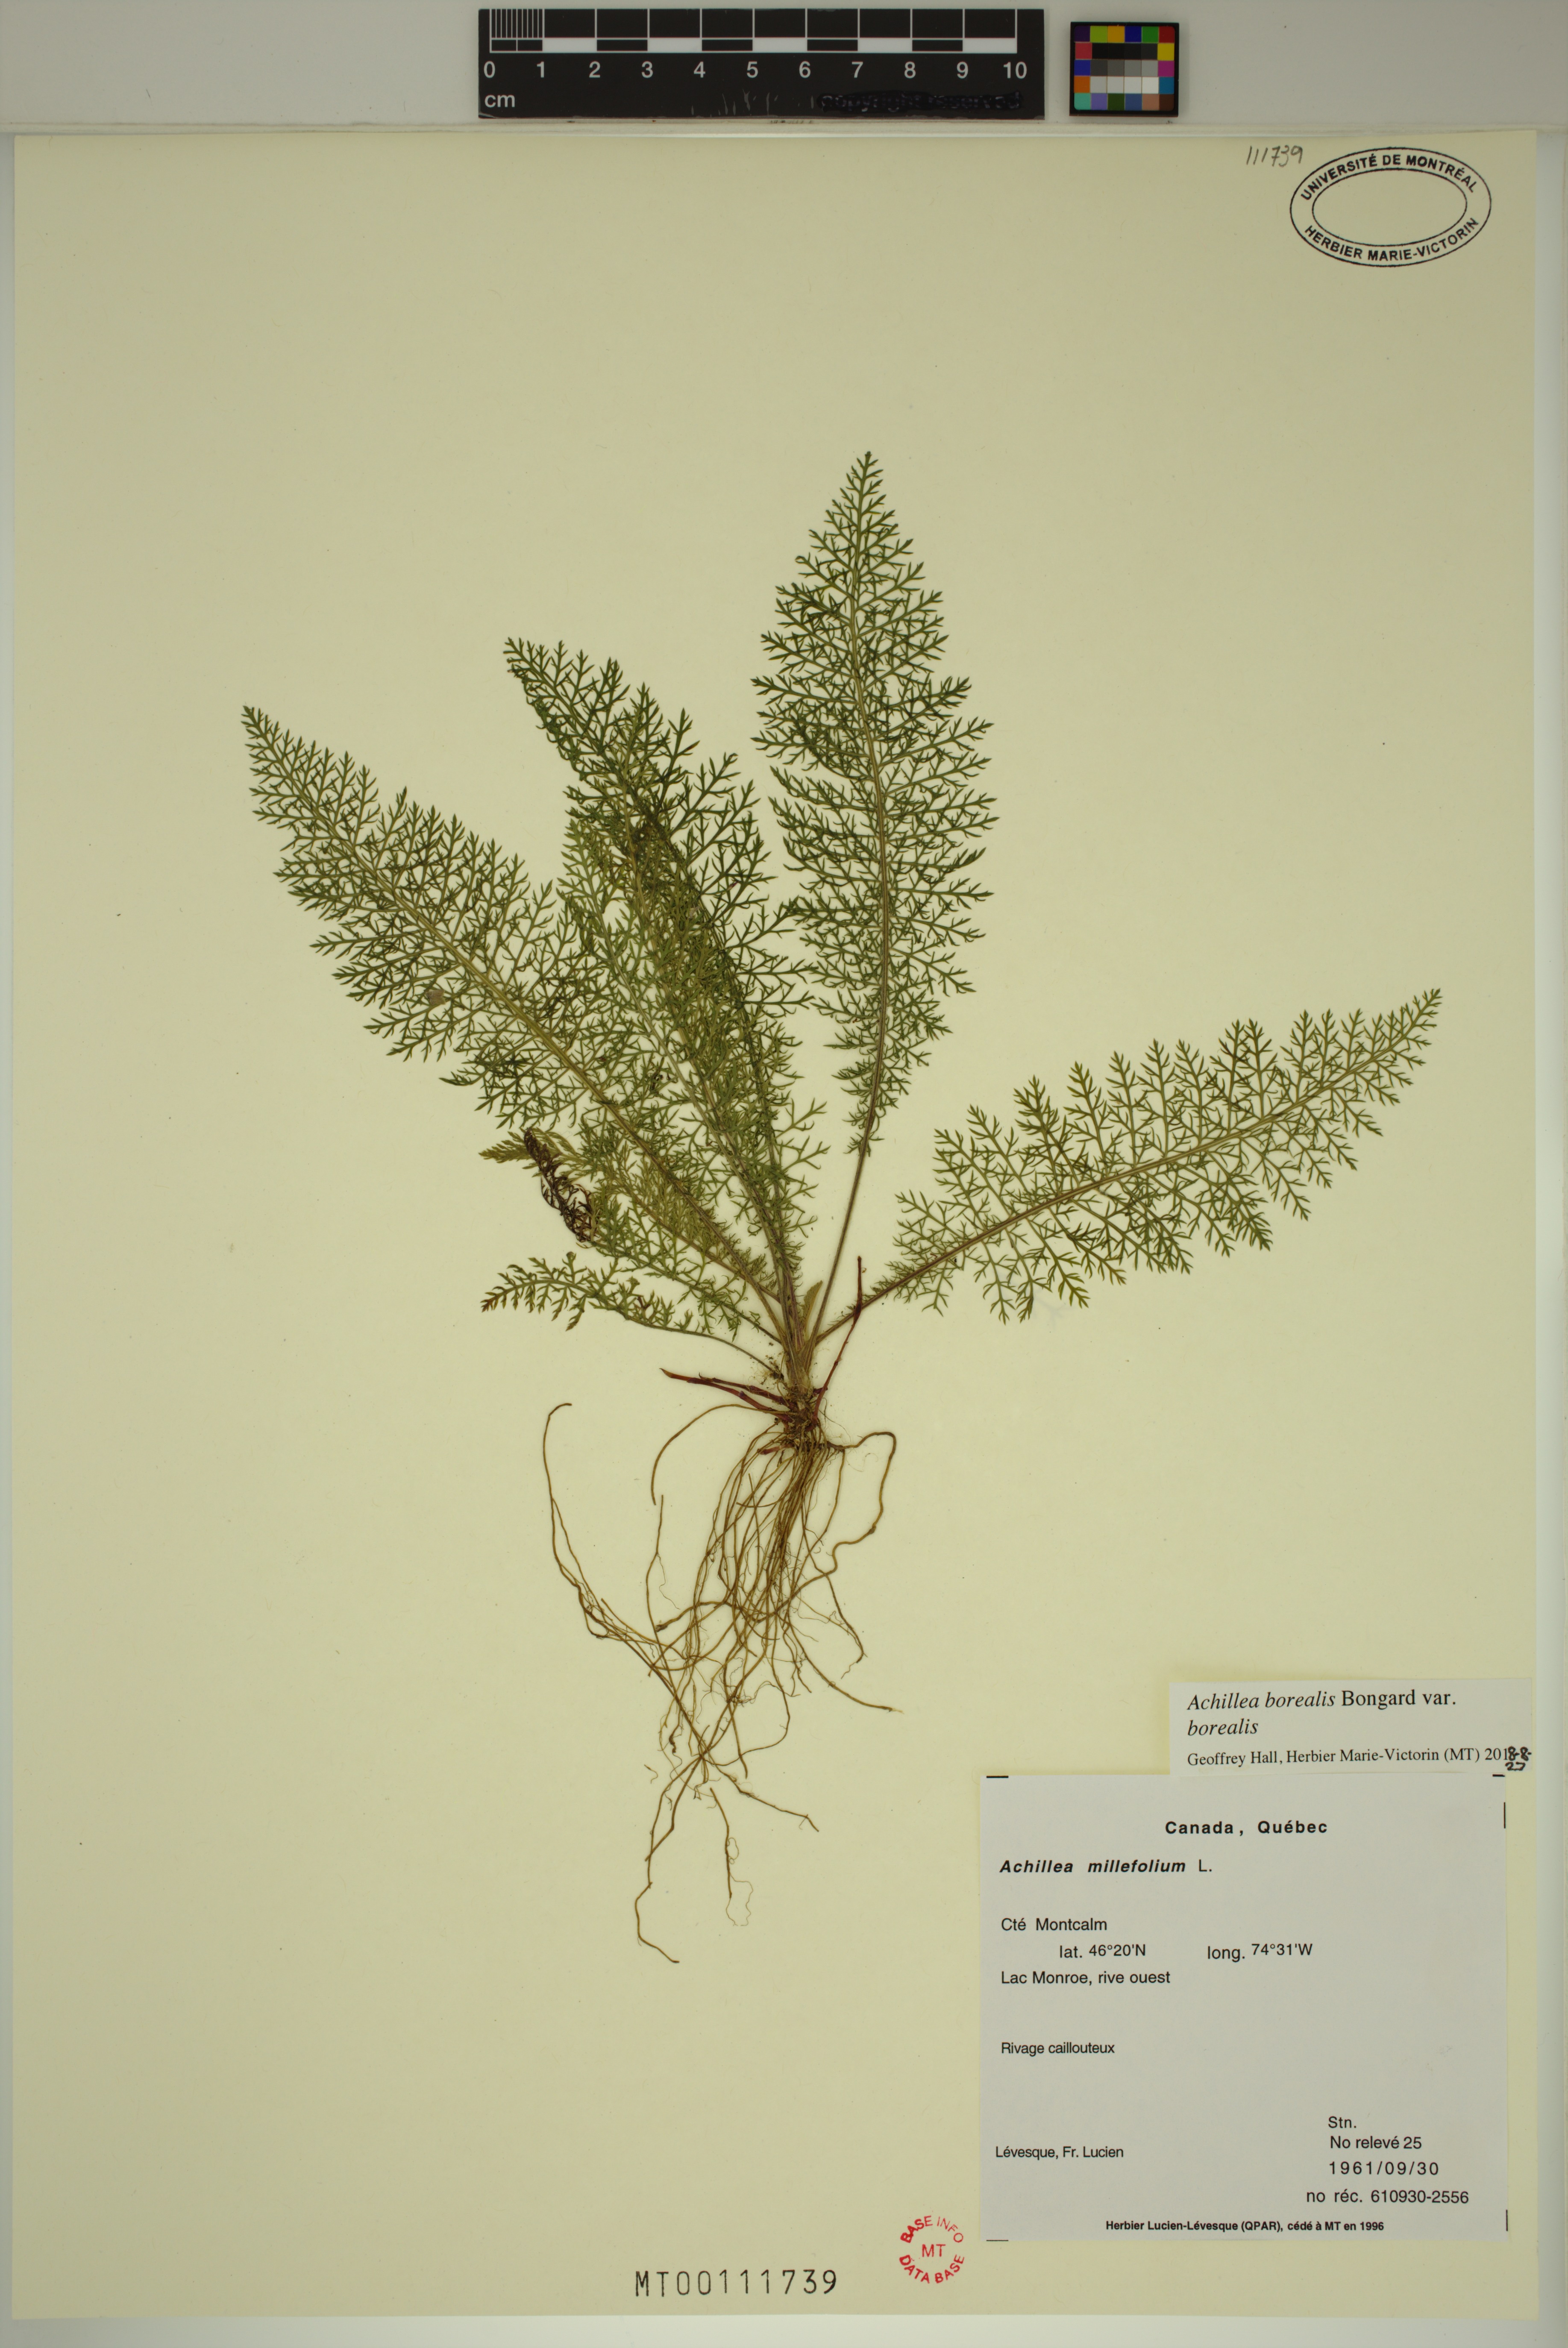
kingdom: Plantae
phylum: Tracheophyta
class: Magnoliopsida
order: Asterales
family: Asteraceae
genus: Achillea
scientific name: Achillea millefolium
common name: Yarrow
